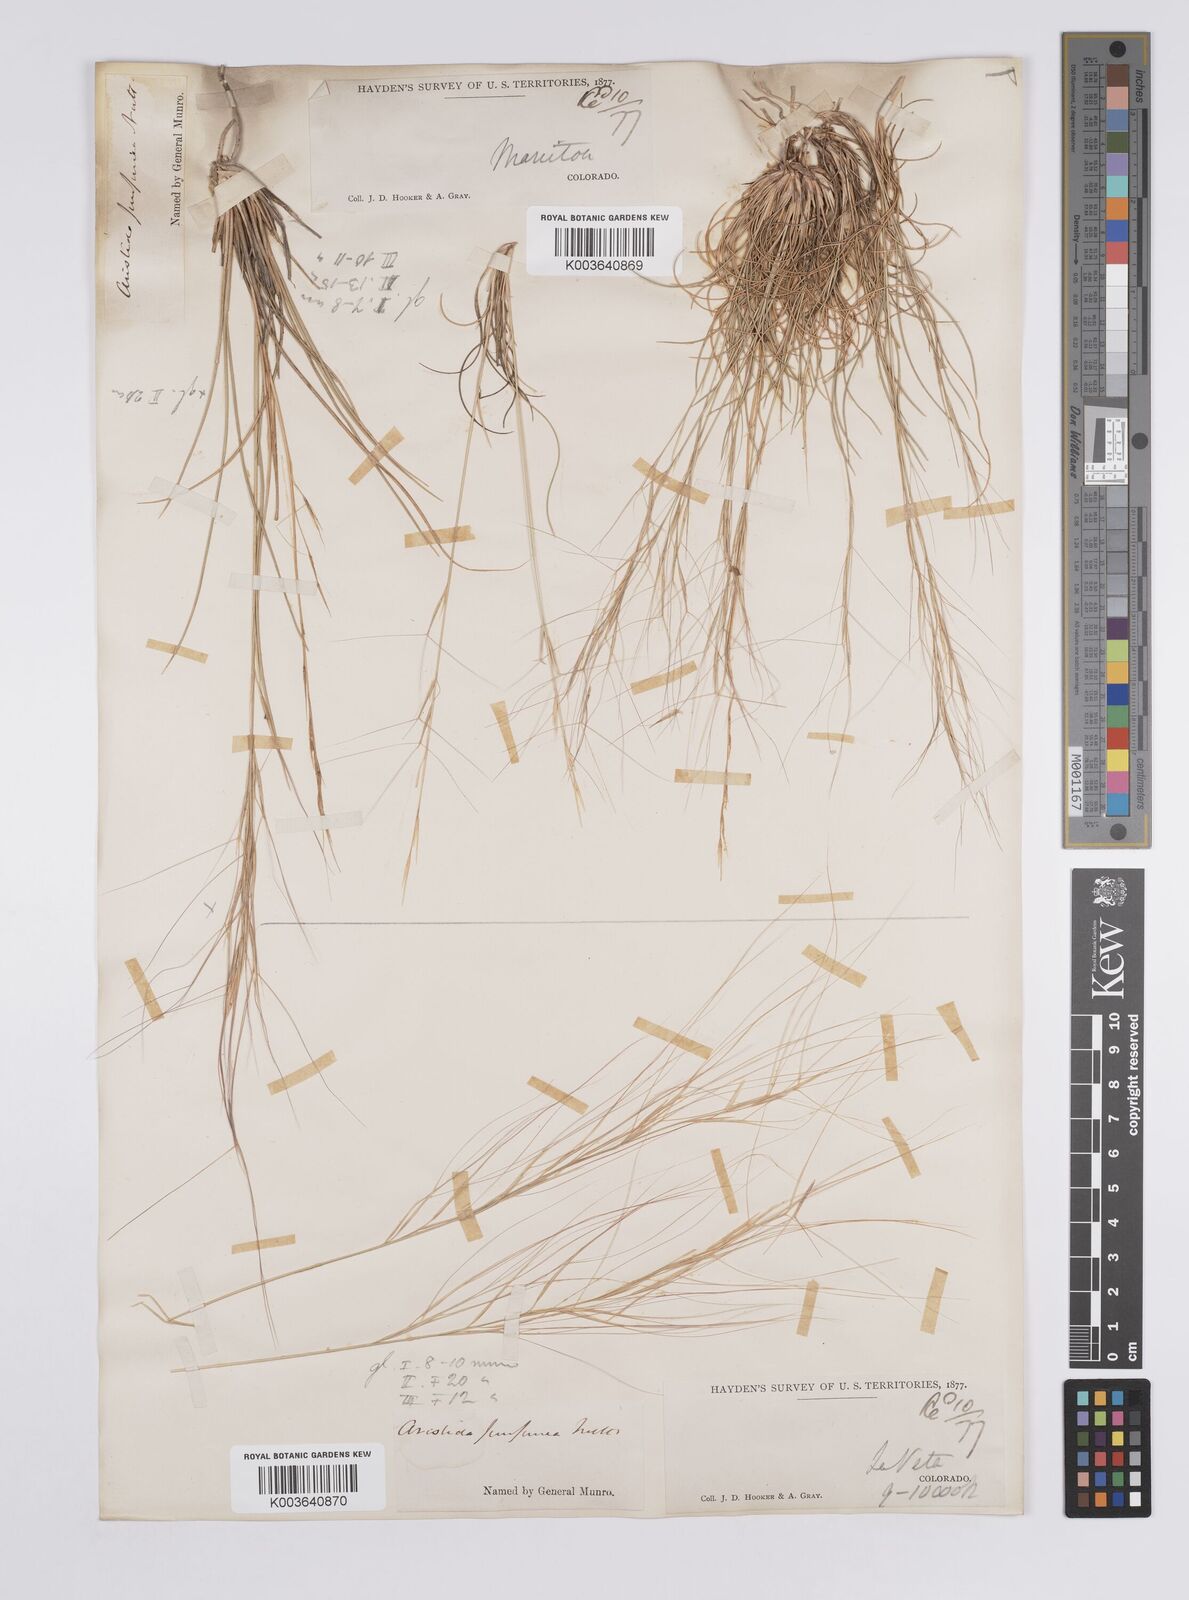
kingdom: Plantae
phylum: Tracheophyta
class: Liliopsida
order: Poales
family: Poaceae
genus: Aristida
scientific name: Aristida purpurea
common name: Purple threeawn
